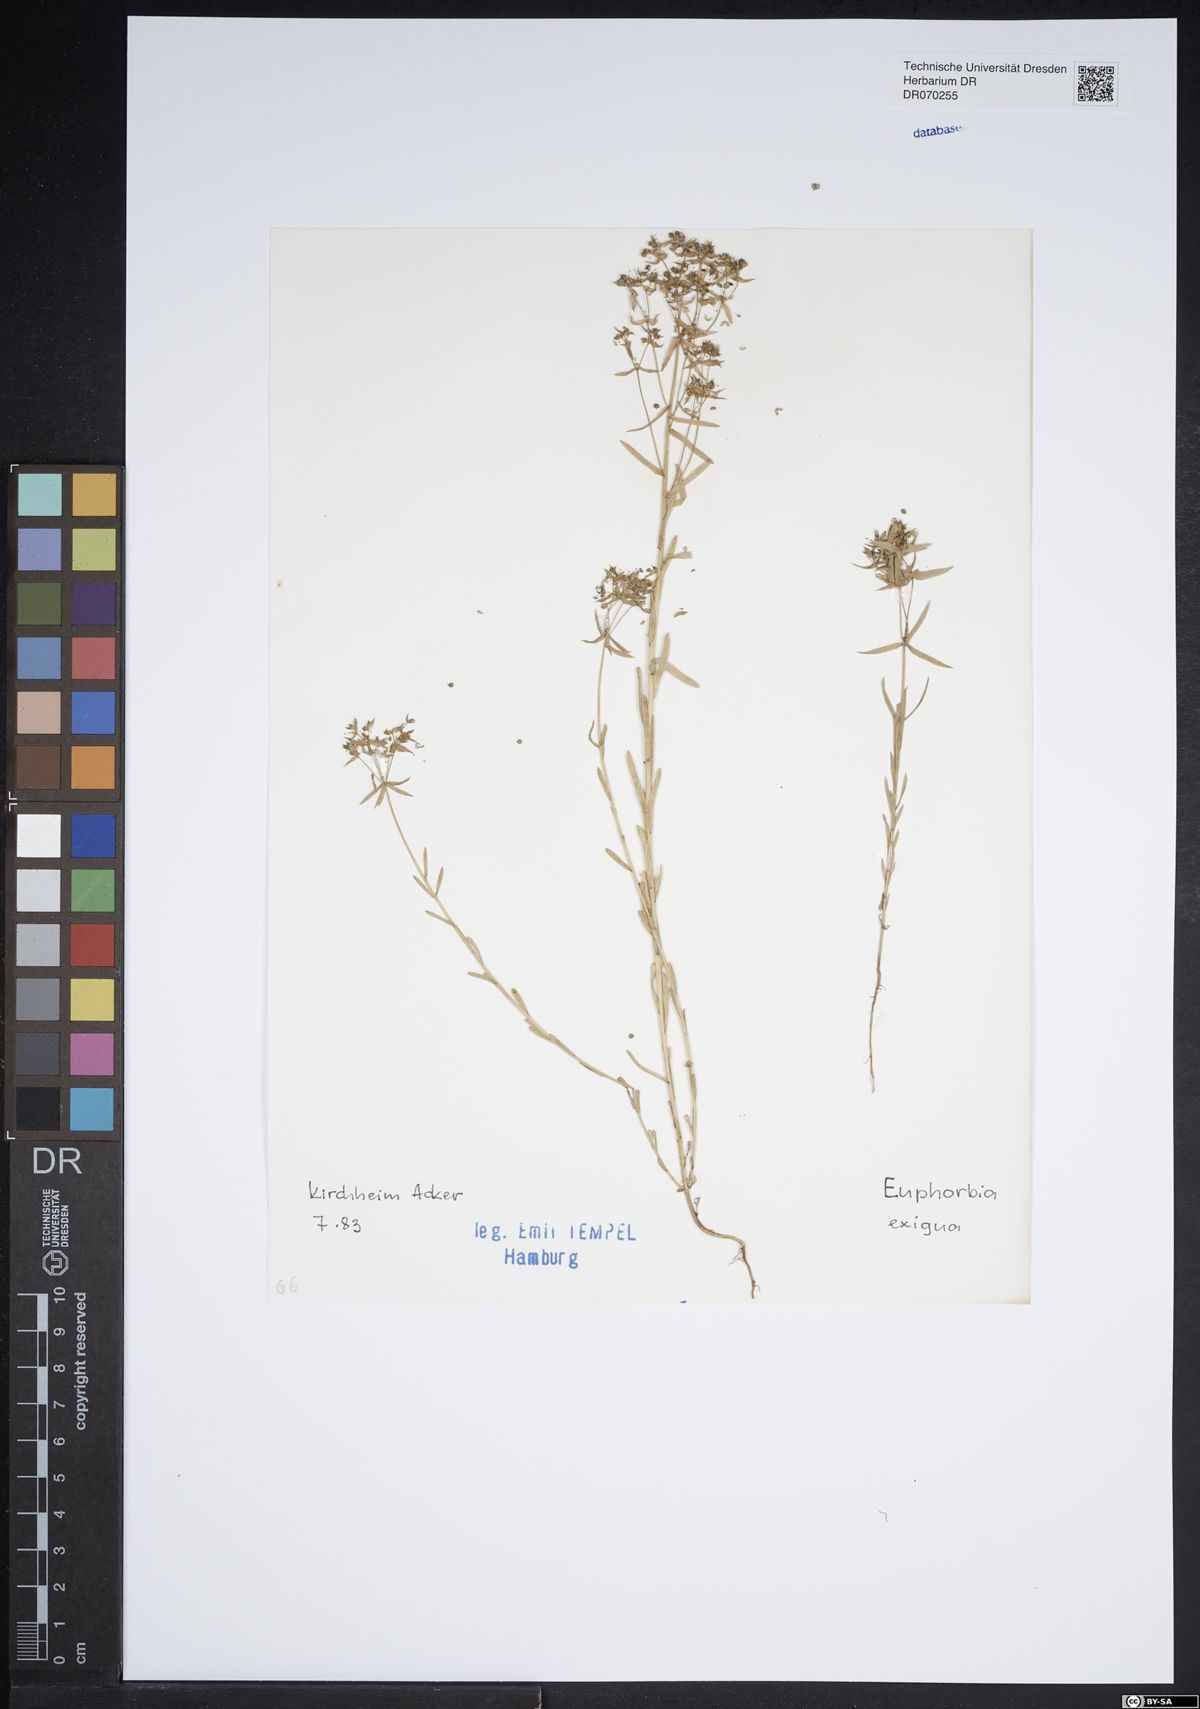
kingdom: Plantae
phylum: Tracheophyta
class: Magnoliopsida
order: Malpighiales
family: Euphorbiaceae
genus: Euphorbia
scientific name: Euphorbia exigua
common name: Dwarf spurge
